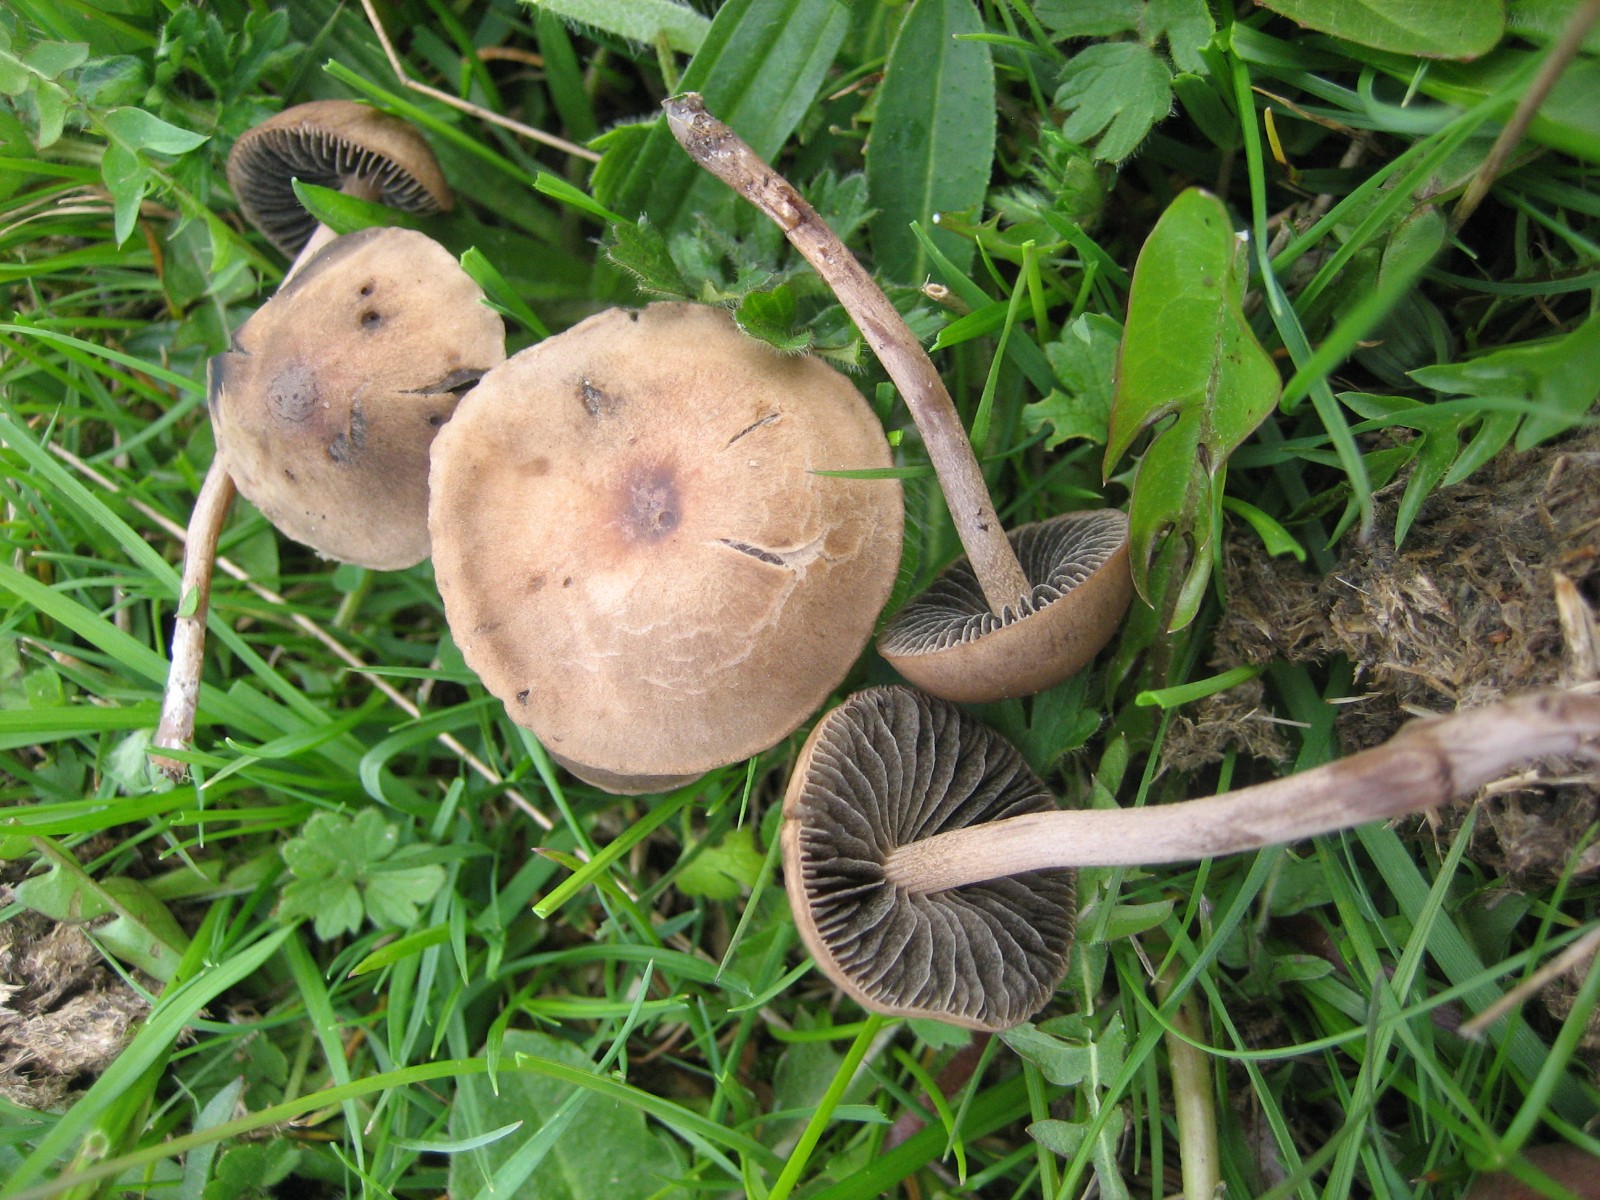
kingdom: Fungi
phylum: Basidiomycota
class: Agaricomycetes
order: Agaricales
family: Bolbitiaceae
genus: Panaeolus
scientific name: Panaeolus fimicola
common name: tidlig glanshat
